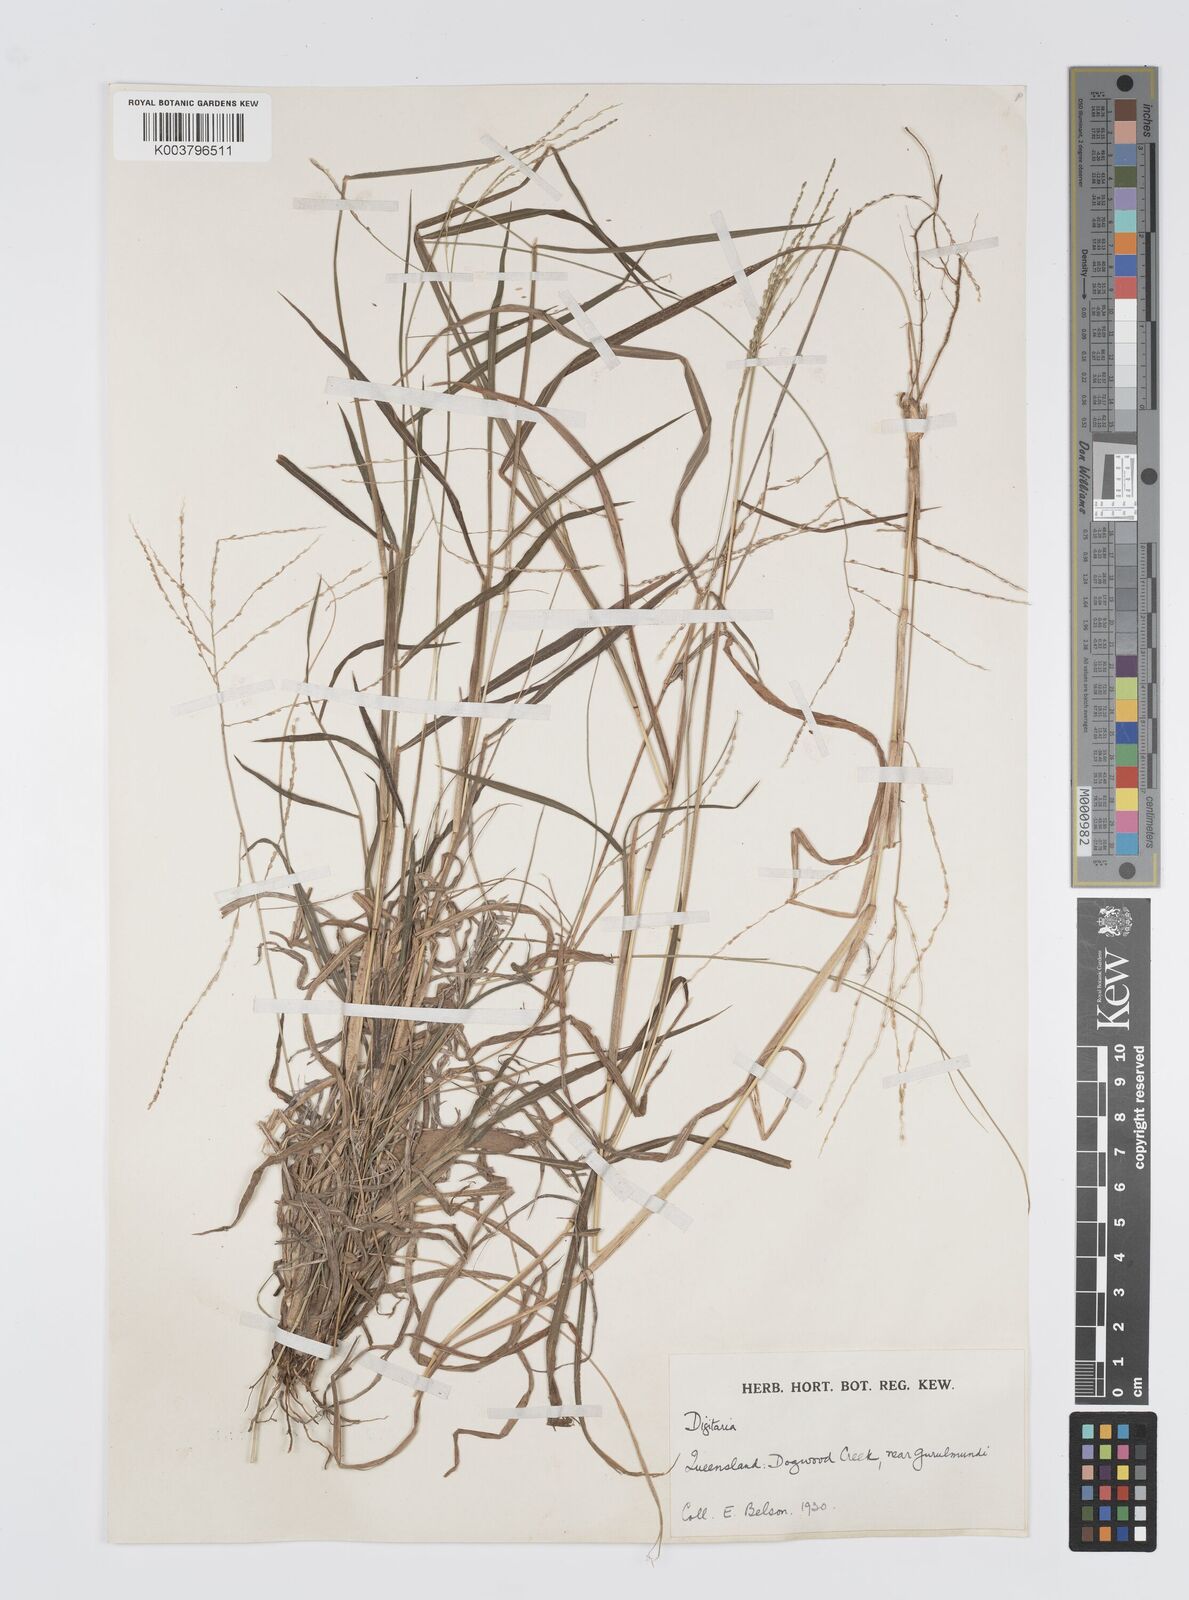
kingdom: Plantae
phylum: Tracheophyta
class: Liliopsida
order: Poales
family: Poaceae
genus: Digitaria
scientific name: Digitaria orbata
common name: Crabgrass
